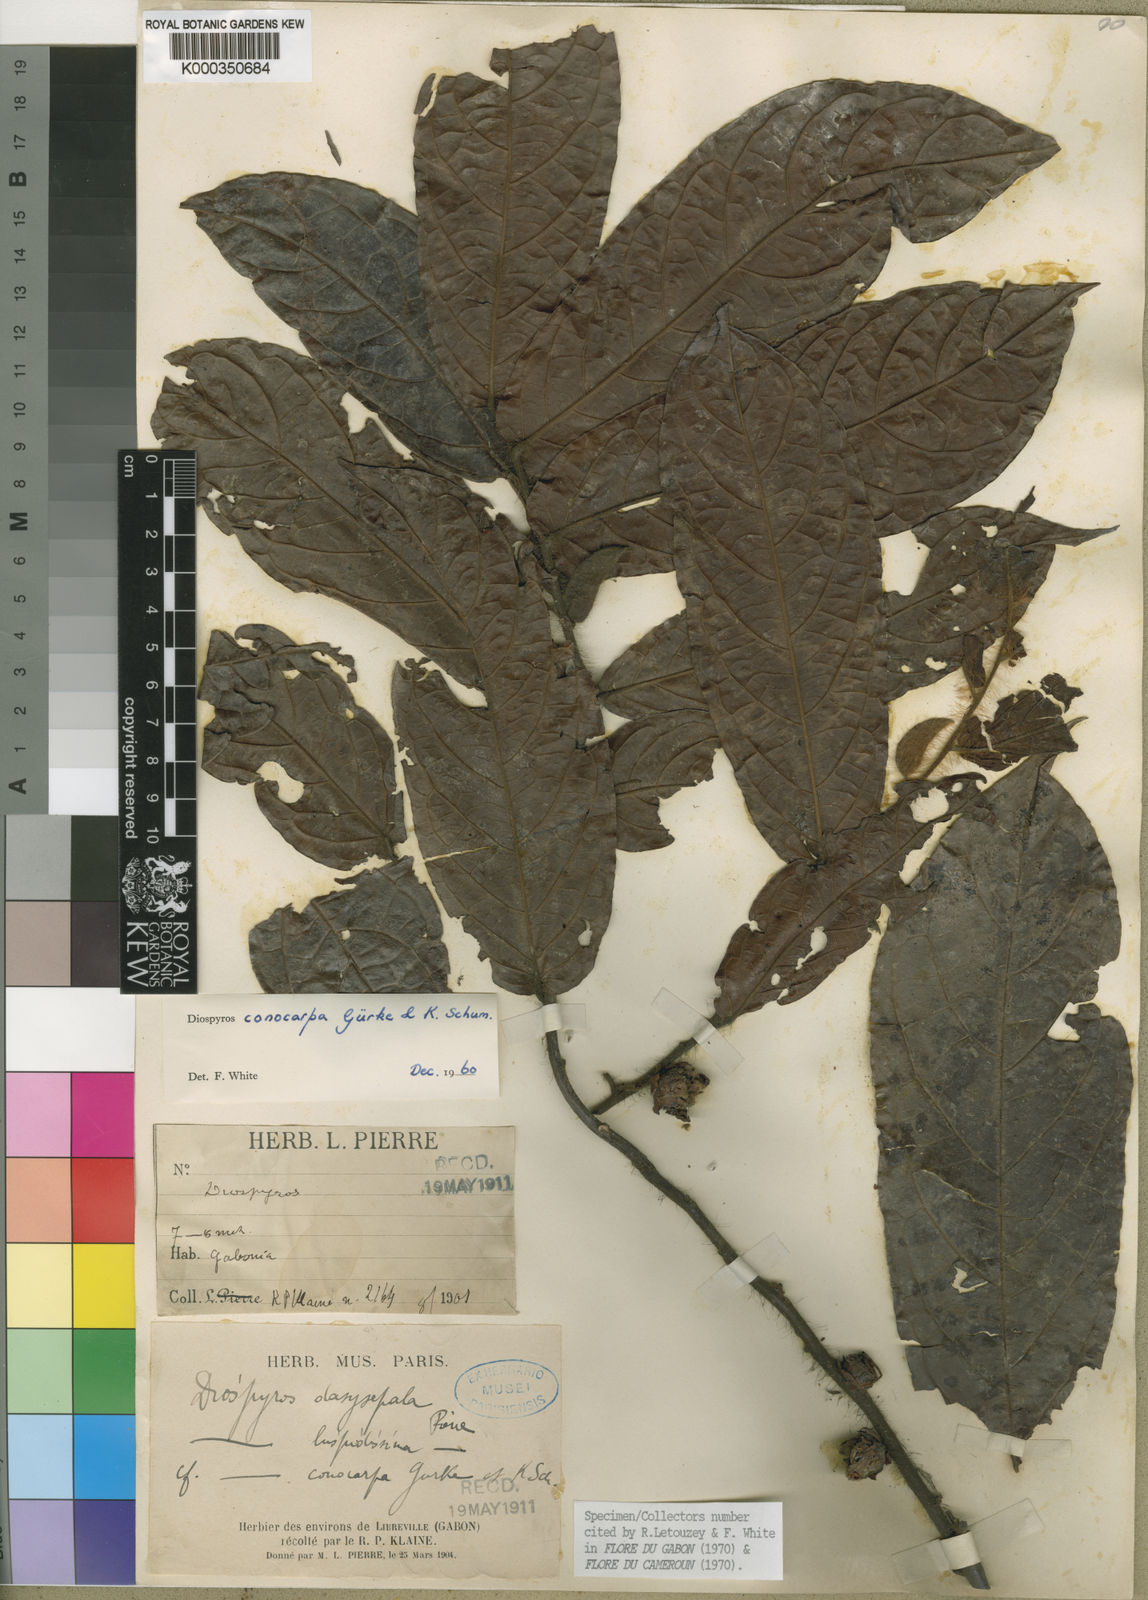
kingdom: Plantae
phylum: Tracheophyta
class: Magnoliopsida
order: Ericales
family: Ebenaceae
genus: Diospyros
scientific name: Diospyros
